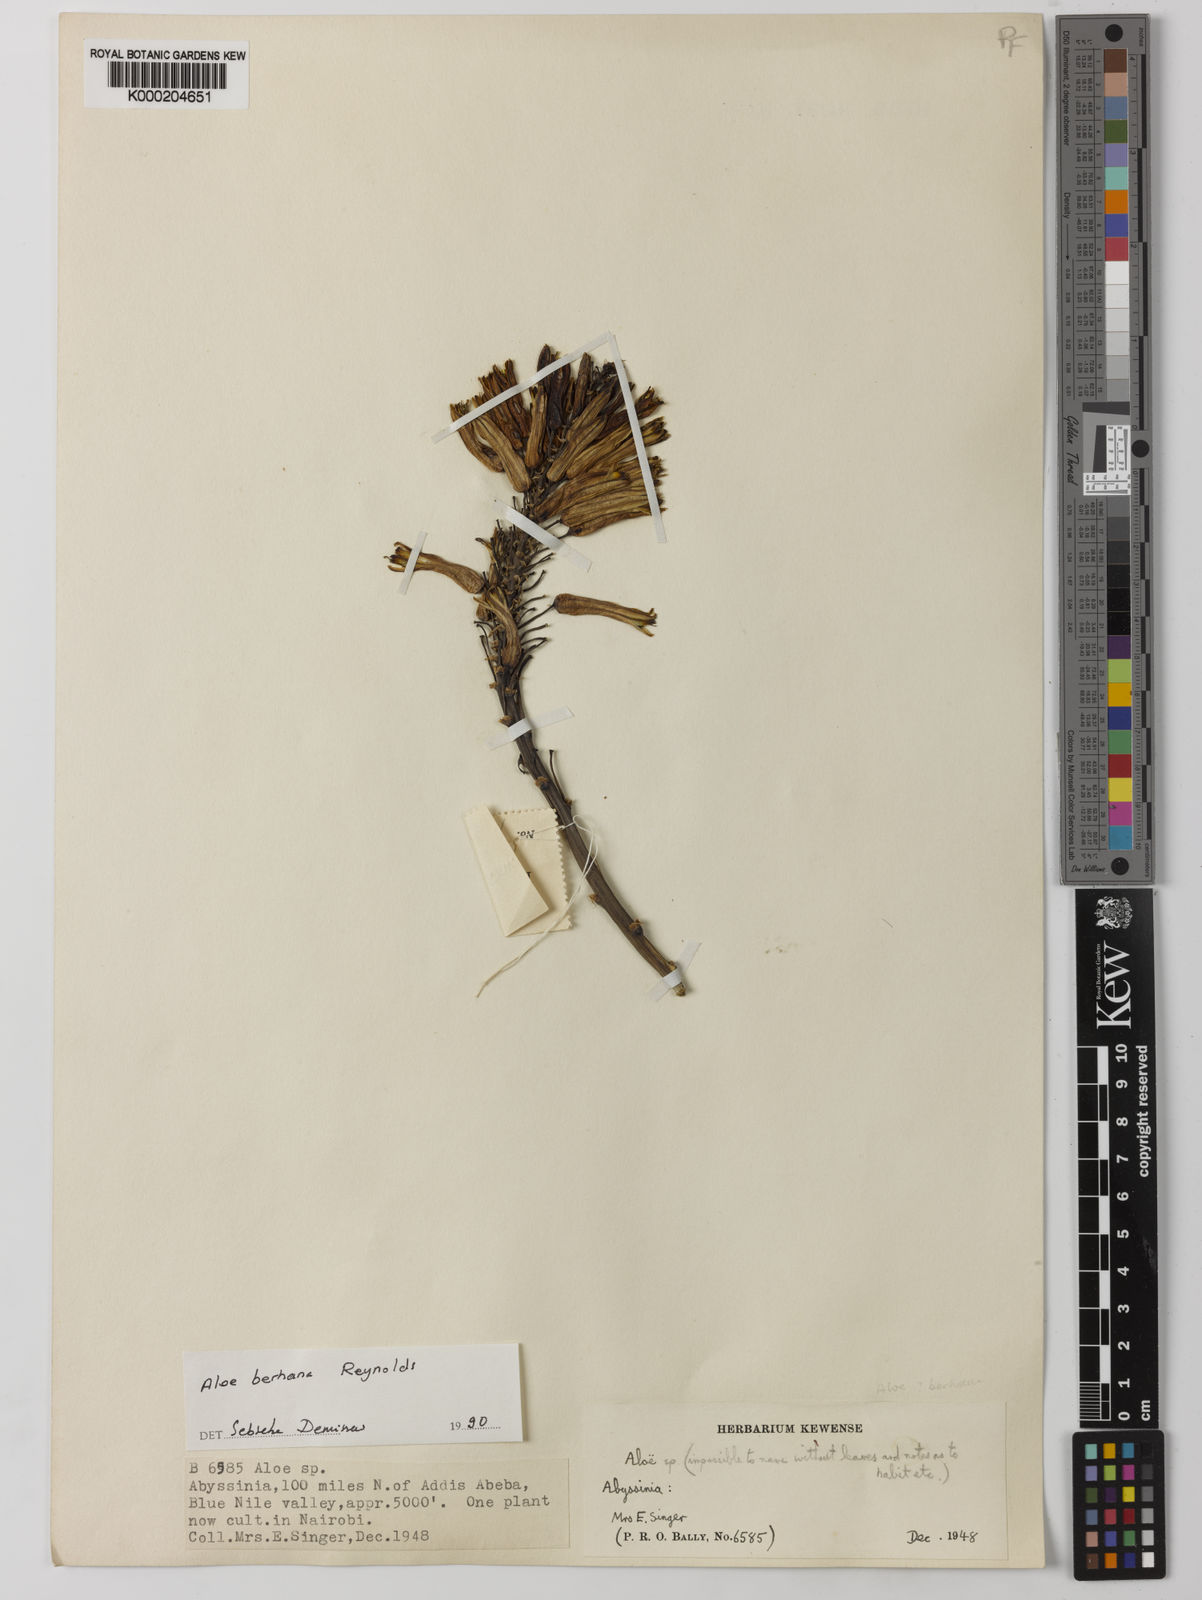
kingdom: Plantae
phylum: Tracheophyta
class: Liliopsida
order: Asparagales
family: Asphodelaceae
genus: Aloe
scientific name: Aloe debrana
